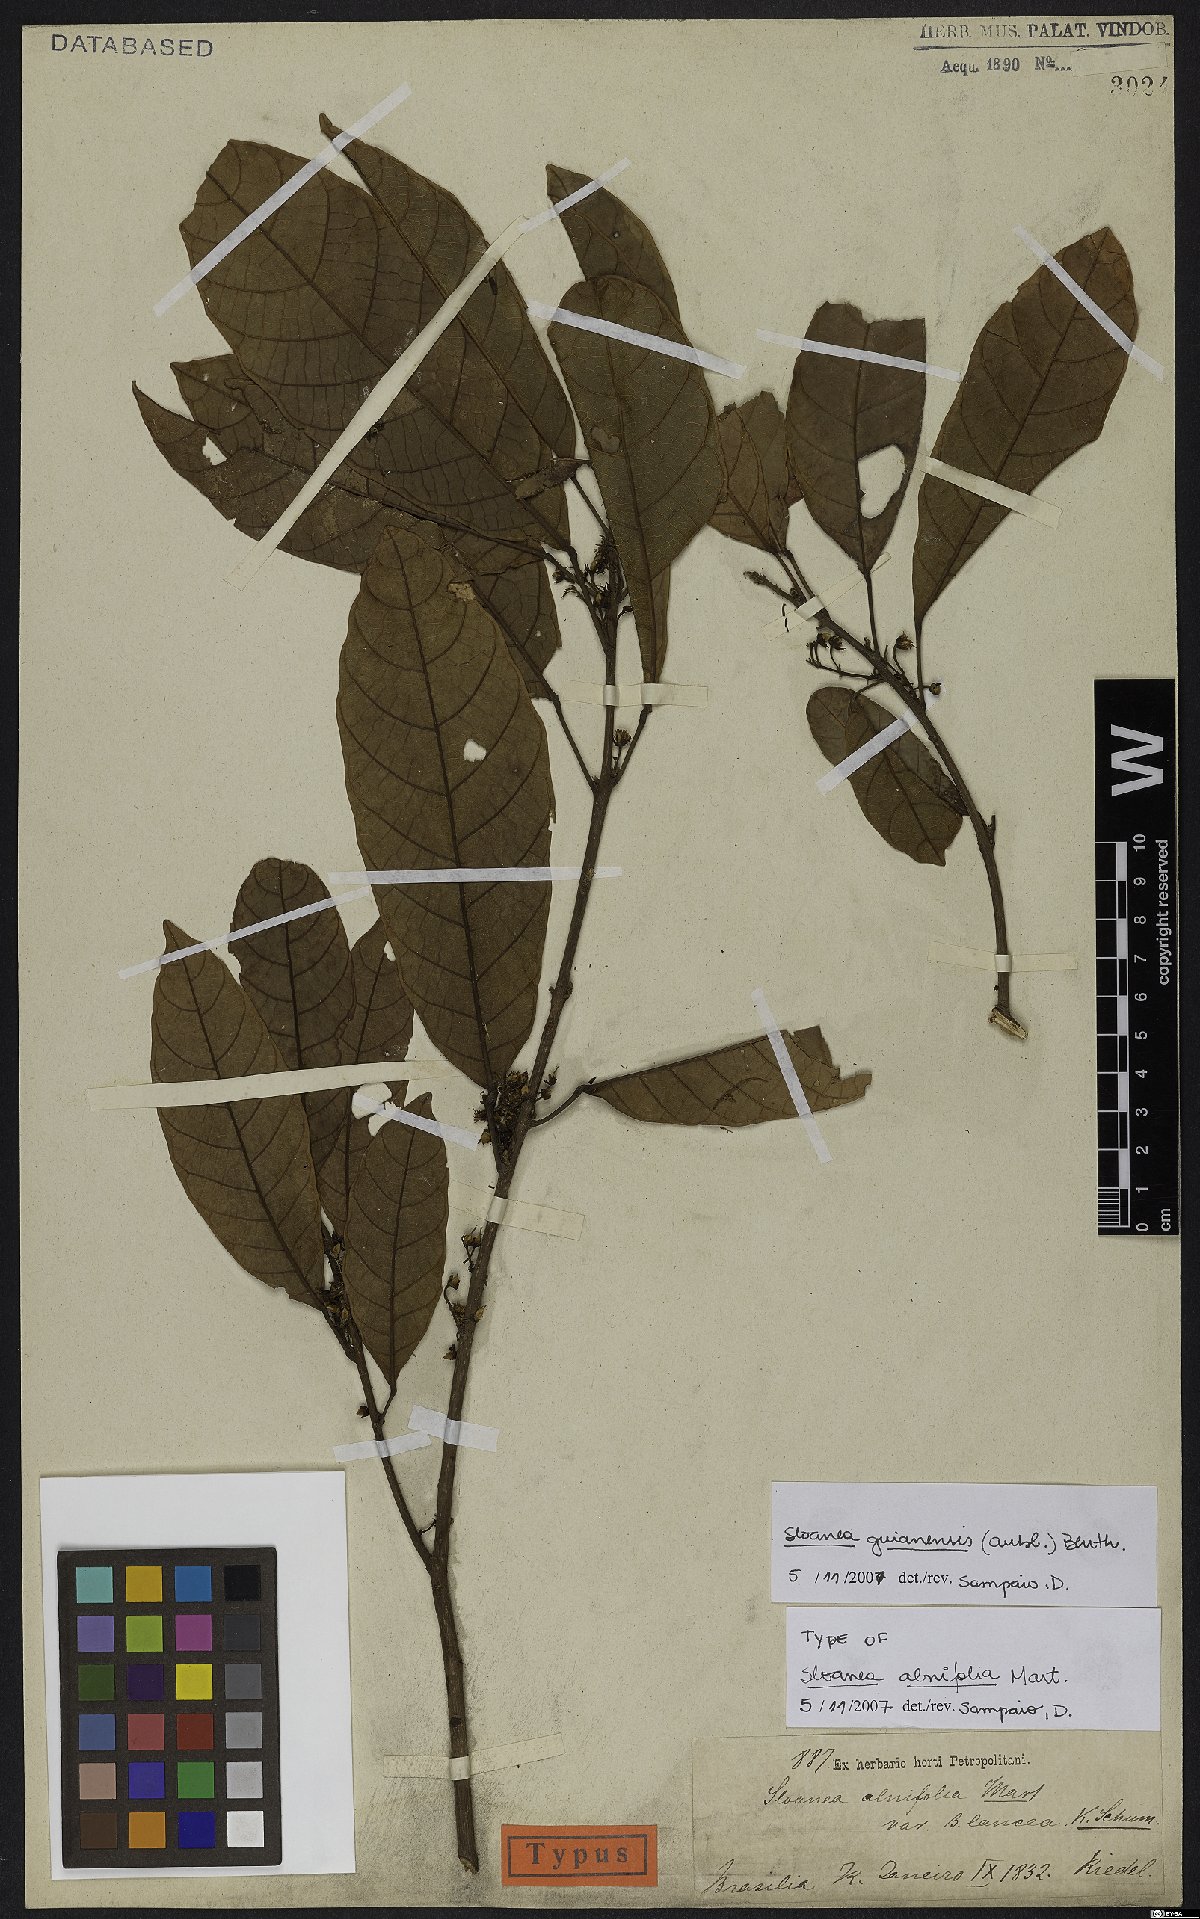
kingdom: Plantae
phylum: Tracheophyta
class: Magnoliopsida
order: Oxalidales
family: Elaeocarpaceae
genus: Sloanea
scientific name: Sloanea guianensis
